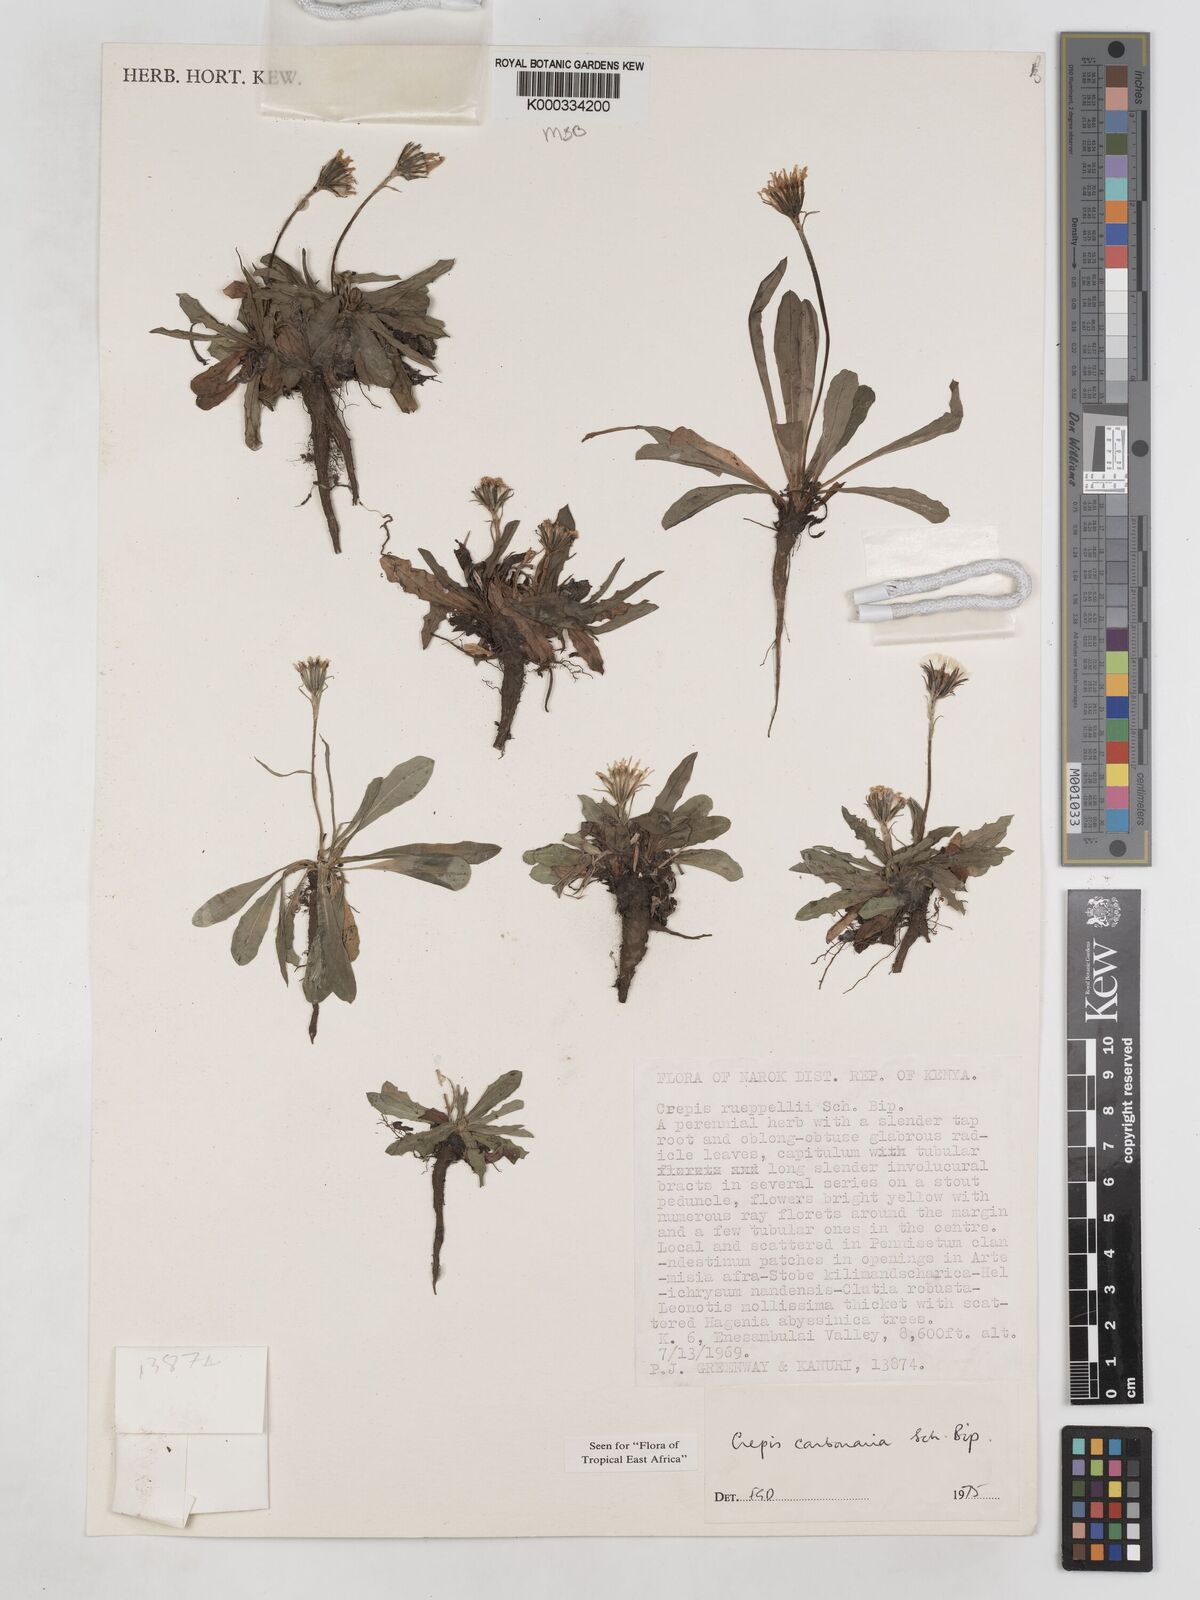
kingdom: Plantae
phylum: Tracheophyta
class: Magnoliopsida
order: Asterales
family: Asteraceae
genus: Crepis
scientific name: Crepis carbonaria
